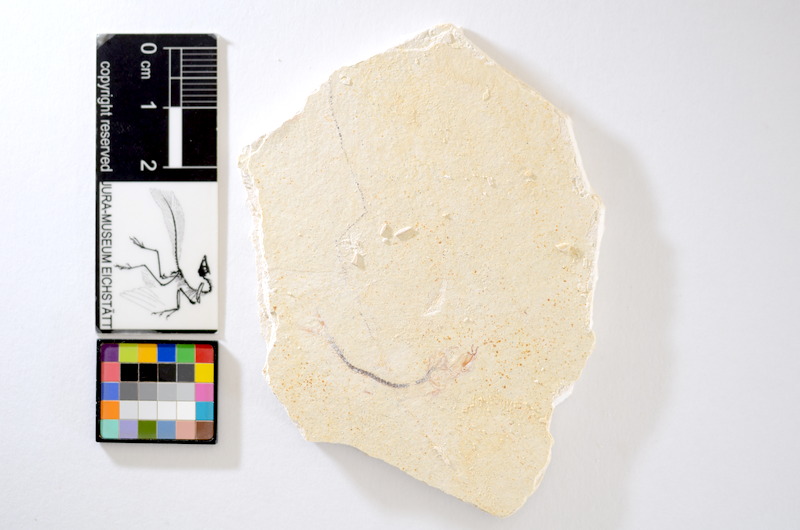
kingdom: Animalia
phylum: Chordata
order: Salmoniformes
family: Orthogonikleithridae
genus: Orthogonikleithrus
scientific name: Orthogonikleithrus hoelli
